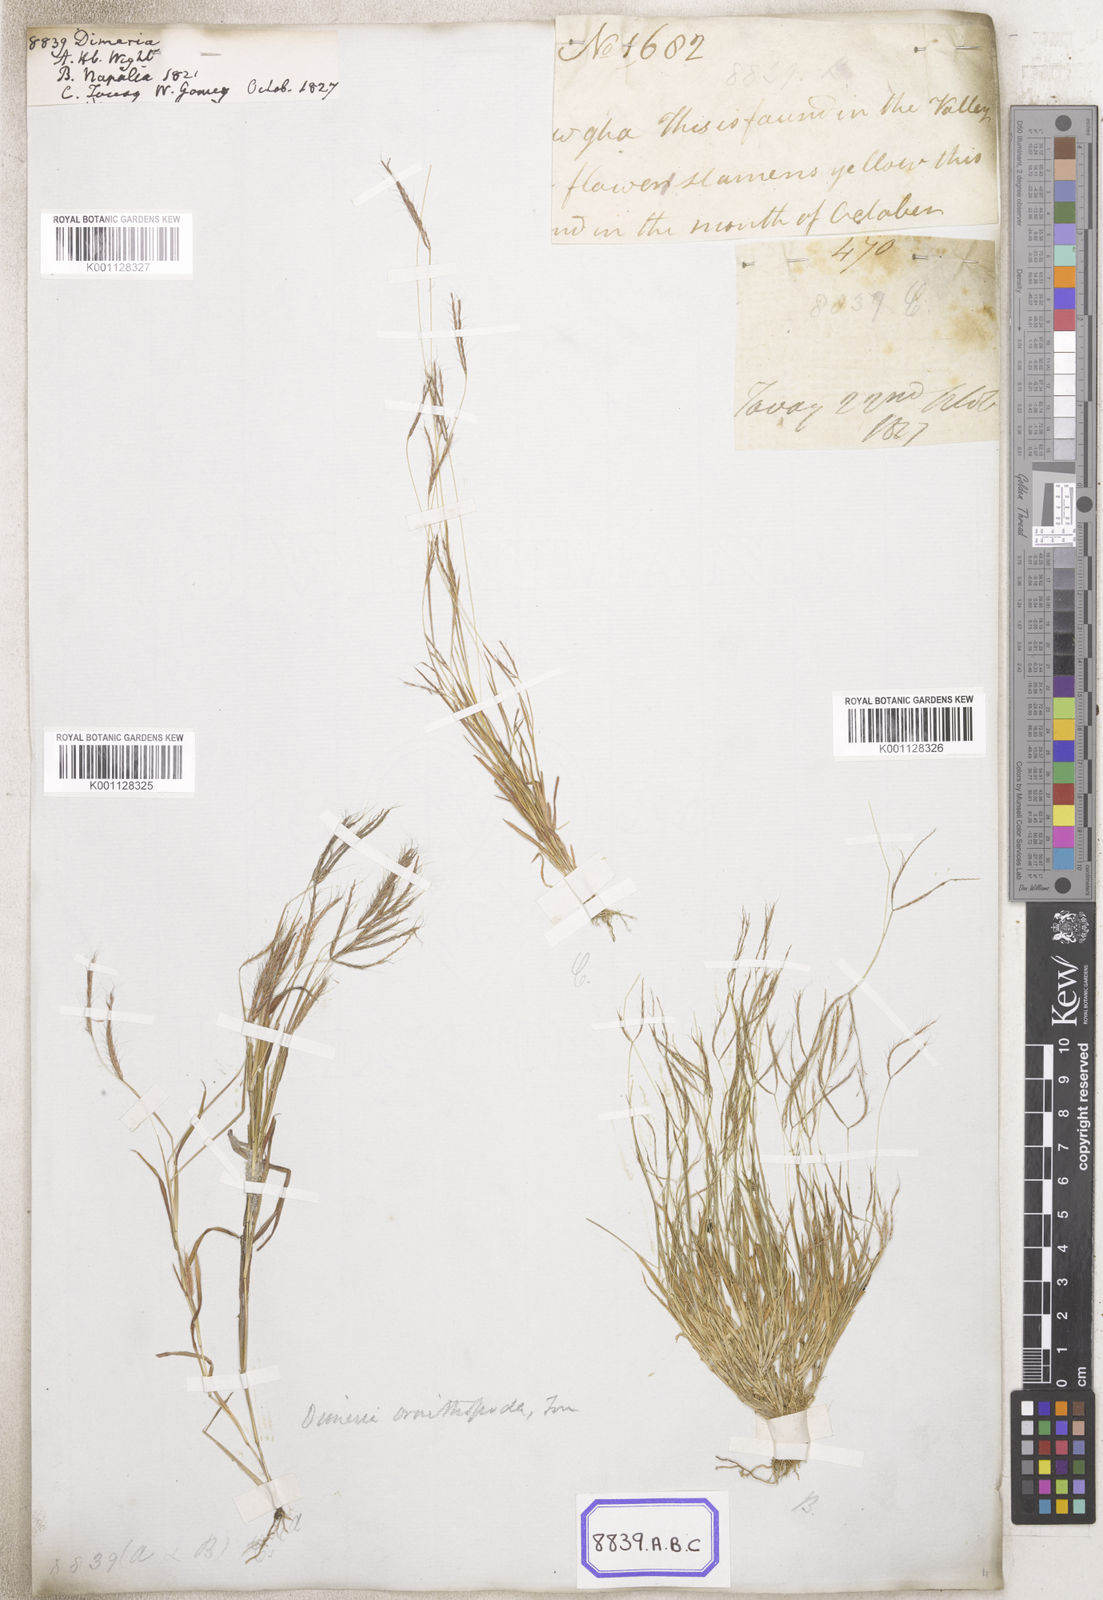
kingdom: Plantae
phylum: Tracheophyta
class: Liliopsida
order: Poales
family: Poaceae
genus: Dimeria
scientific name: Dimeria
